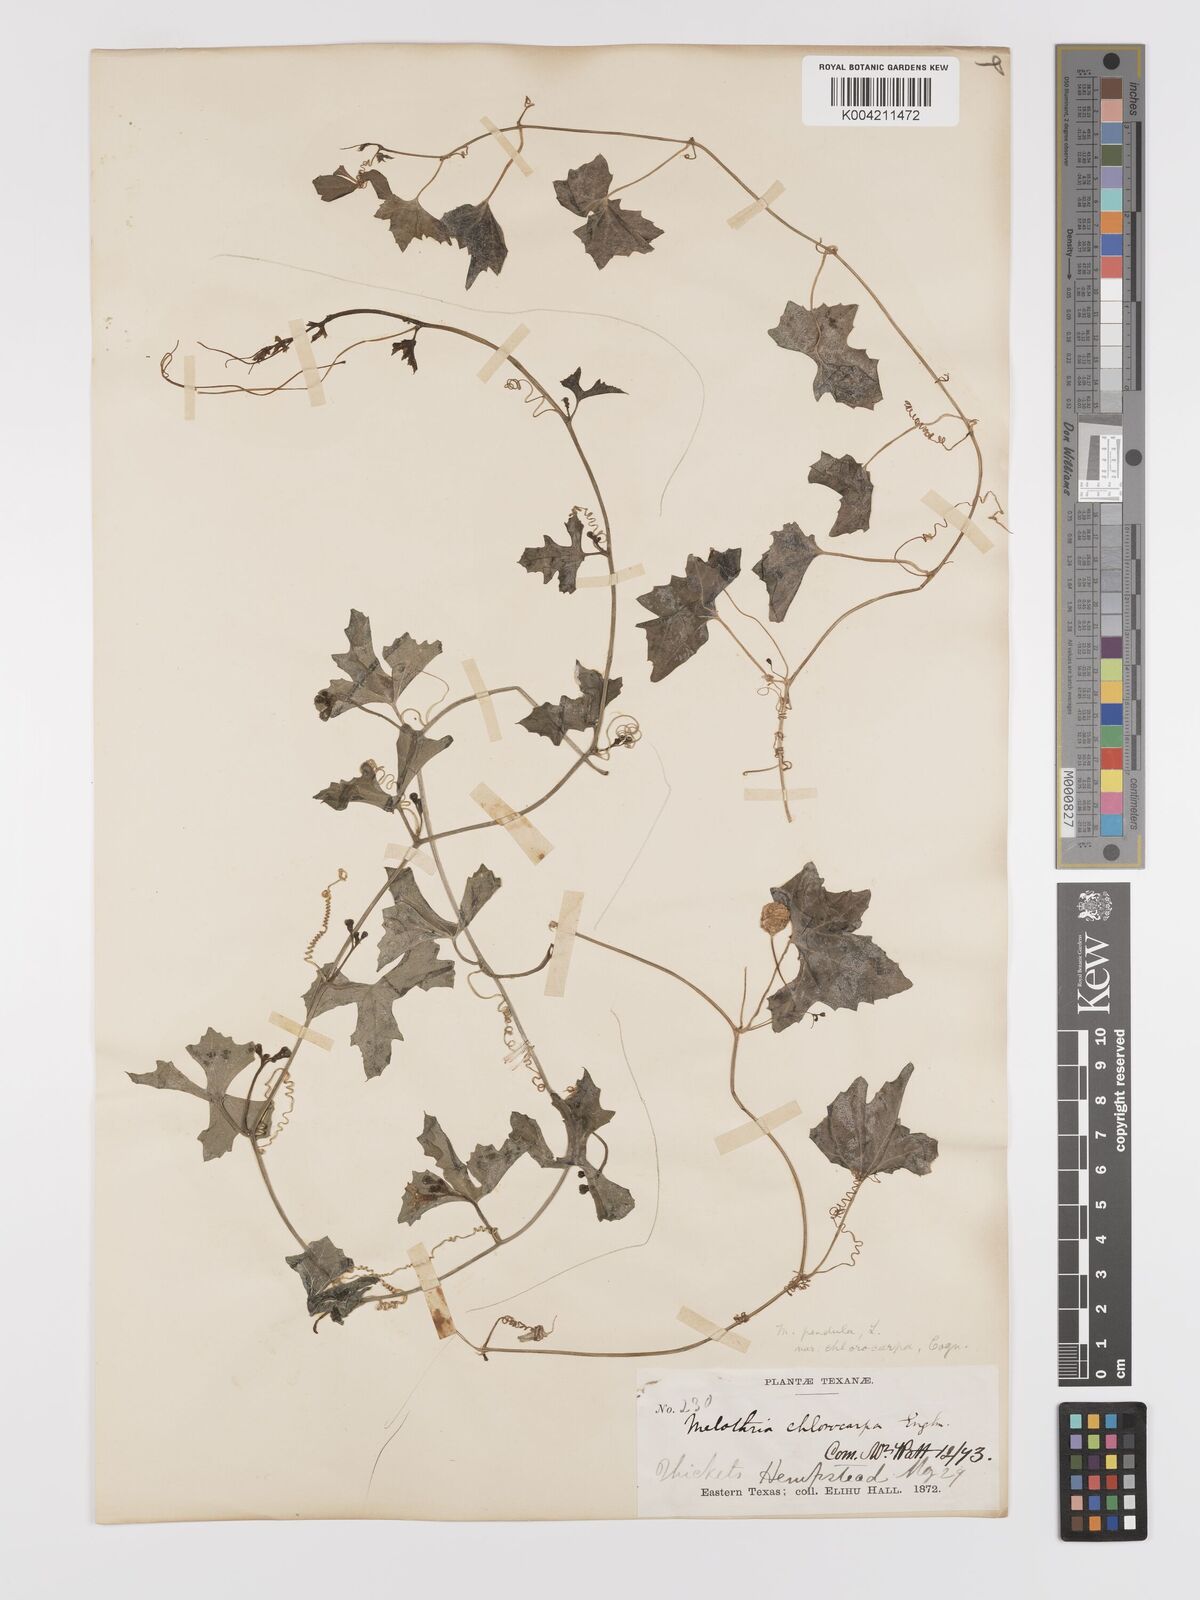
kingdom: Plantae
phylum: Tracheophyta
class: Magnoliopsida
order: Cucurbitales
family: Cucurbitaceae
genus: Melothria
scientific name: Melothria pendula
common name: Creeping-cucumber
